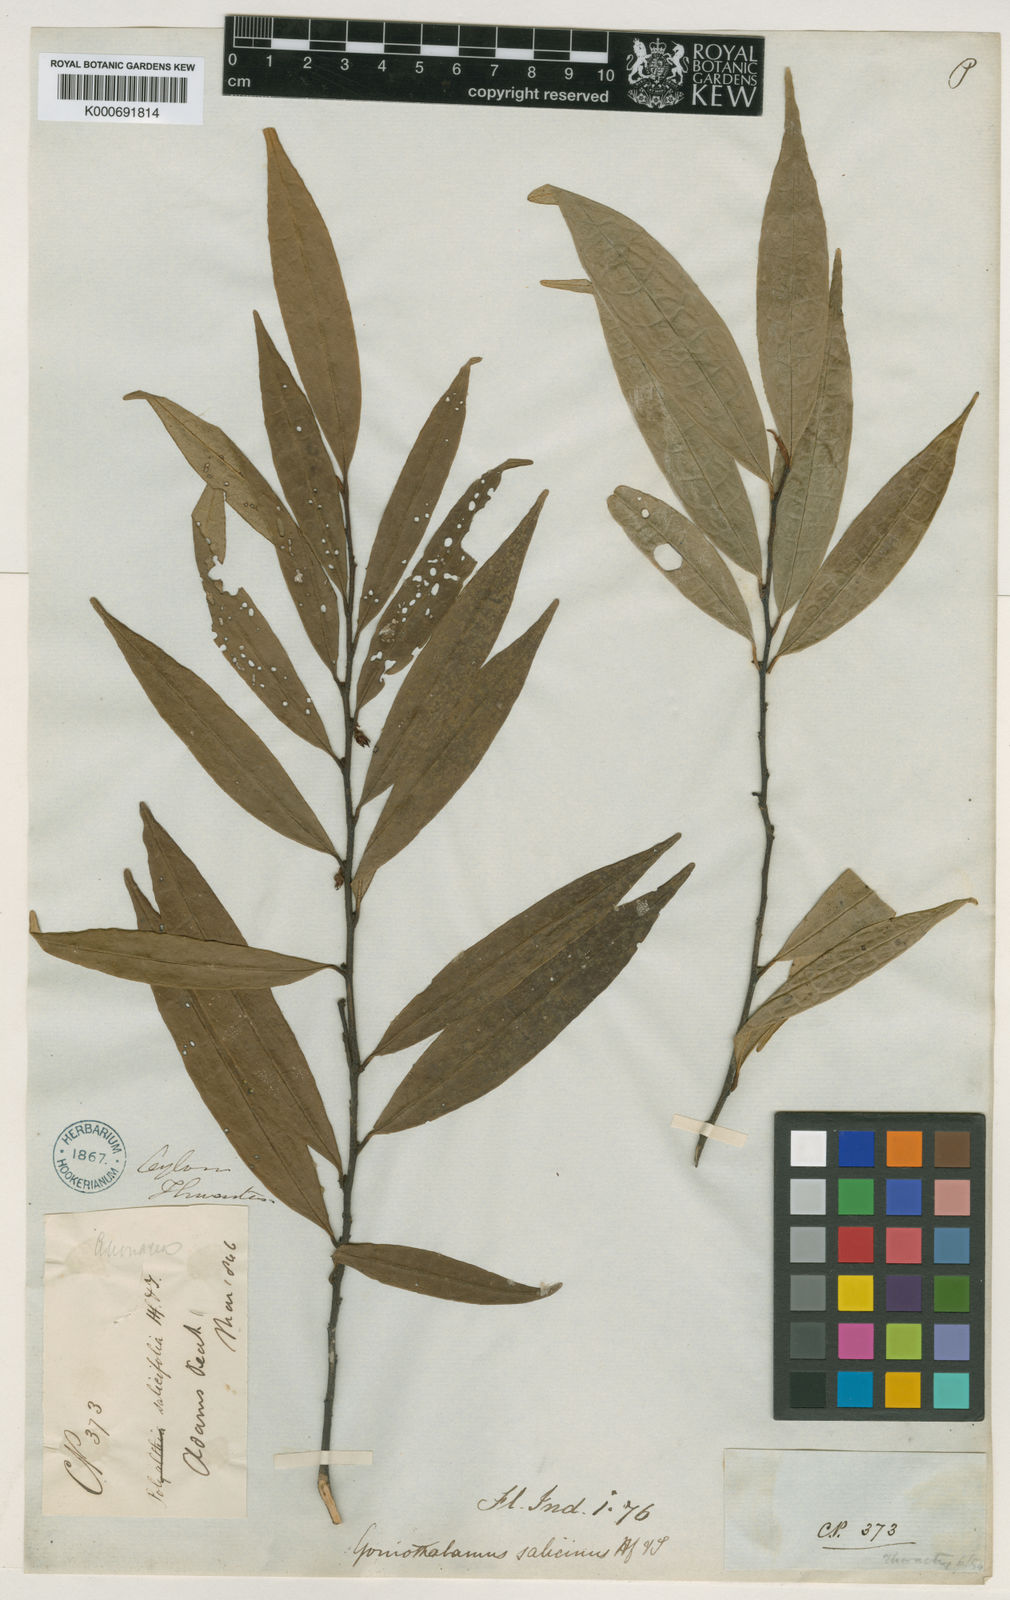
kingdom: Plantae
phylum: Tracheophyta
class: Magnoliopsida
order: Magnoliales
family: Annonaceae
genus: Goniothalamus
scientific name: Goniothalamus salicinus
